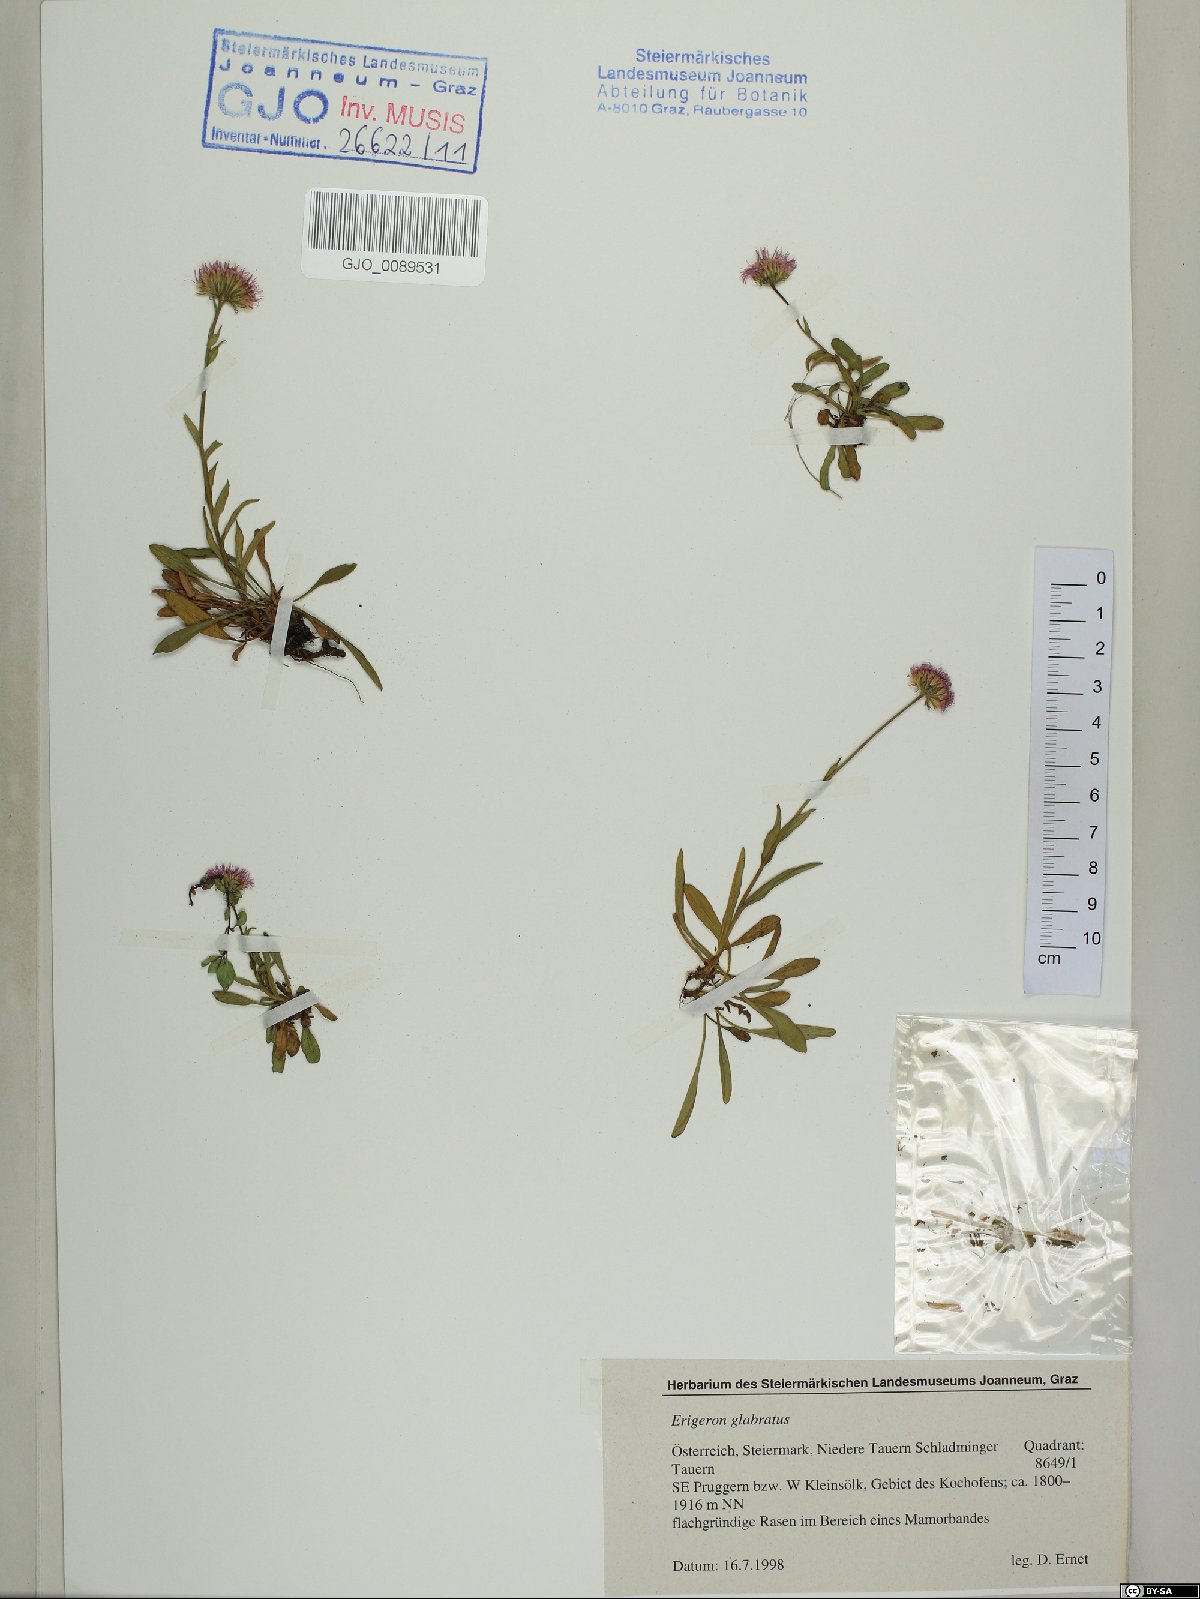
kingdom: Plantae
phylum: Tracheophyta
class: Magnoliopsida
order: Asterales
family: Asteraceae
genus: Erigeron
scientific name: Erigeron glabratus
